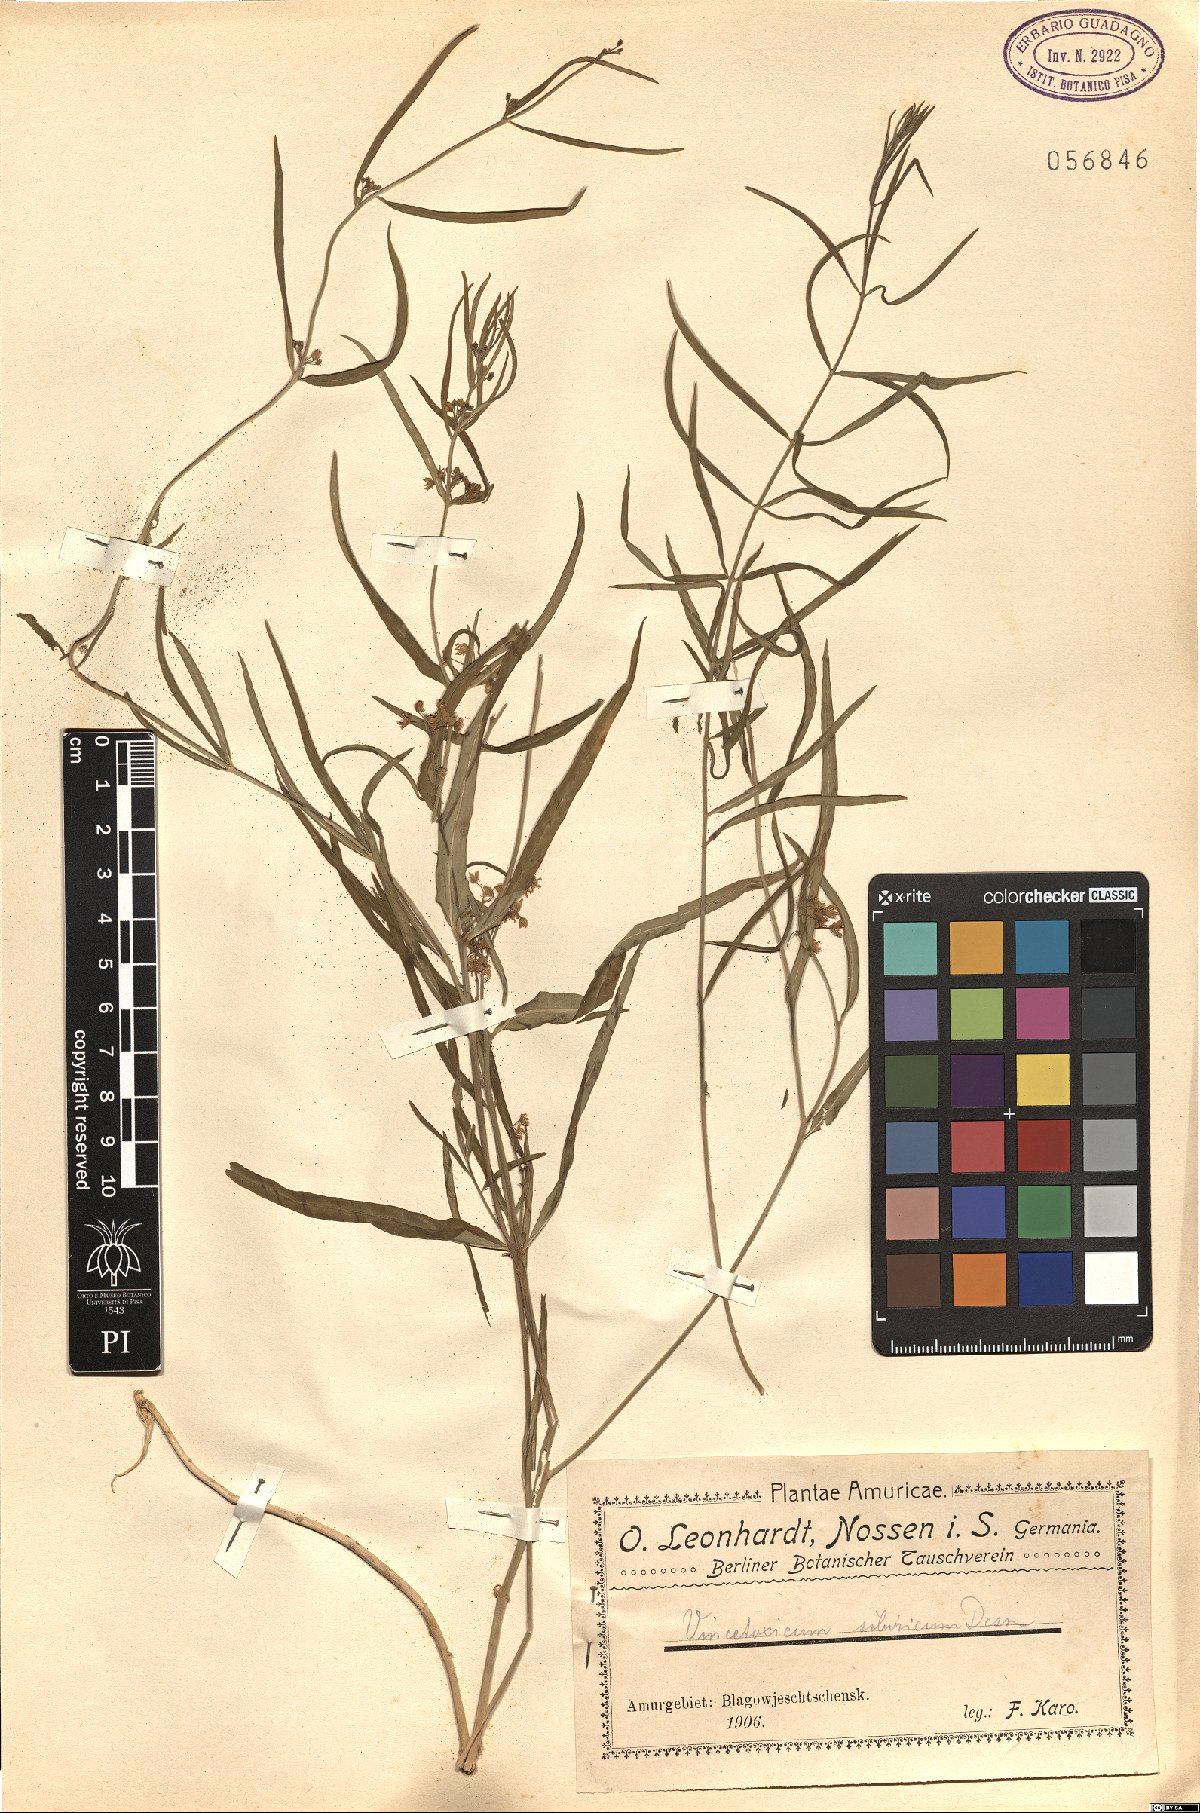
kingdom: Plantae
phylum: Tracheophyta
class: Magnoliopsida
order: Gentianales
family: Apocynaceae
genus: Cynanchum
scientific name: Cynanchum thesioides
